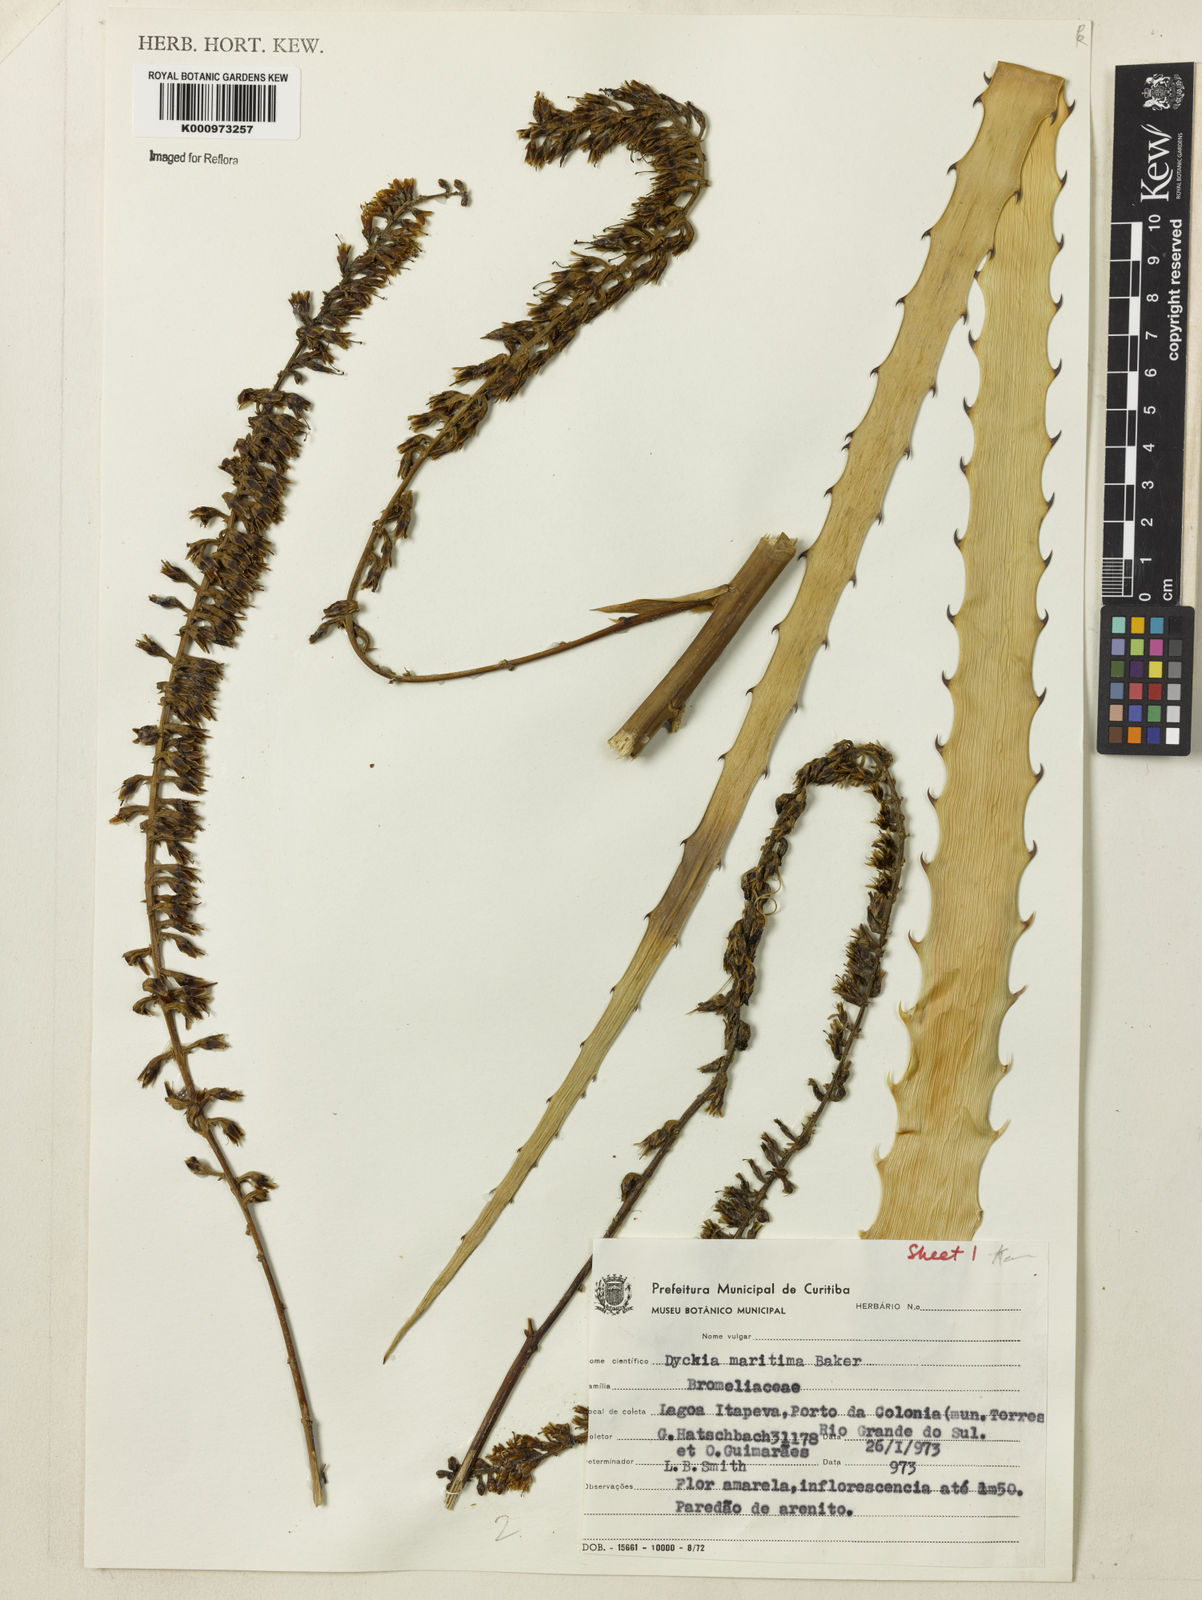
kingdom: Plantae
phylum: Tracheophyta
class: Liliopsida
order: Poales
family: Bromeliaceae
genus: Dyckia
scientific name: Dyckia maritima
